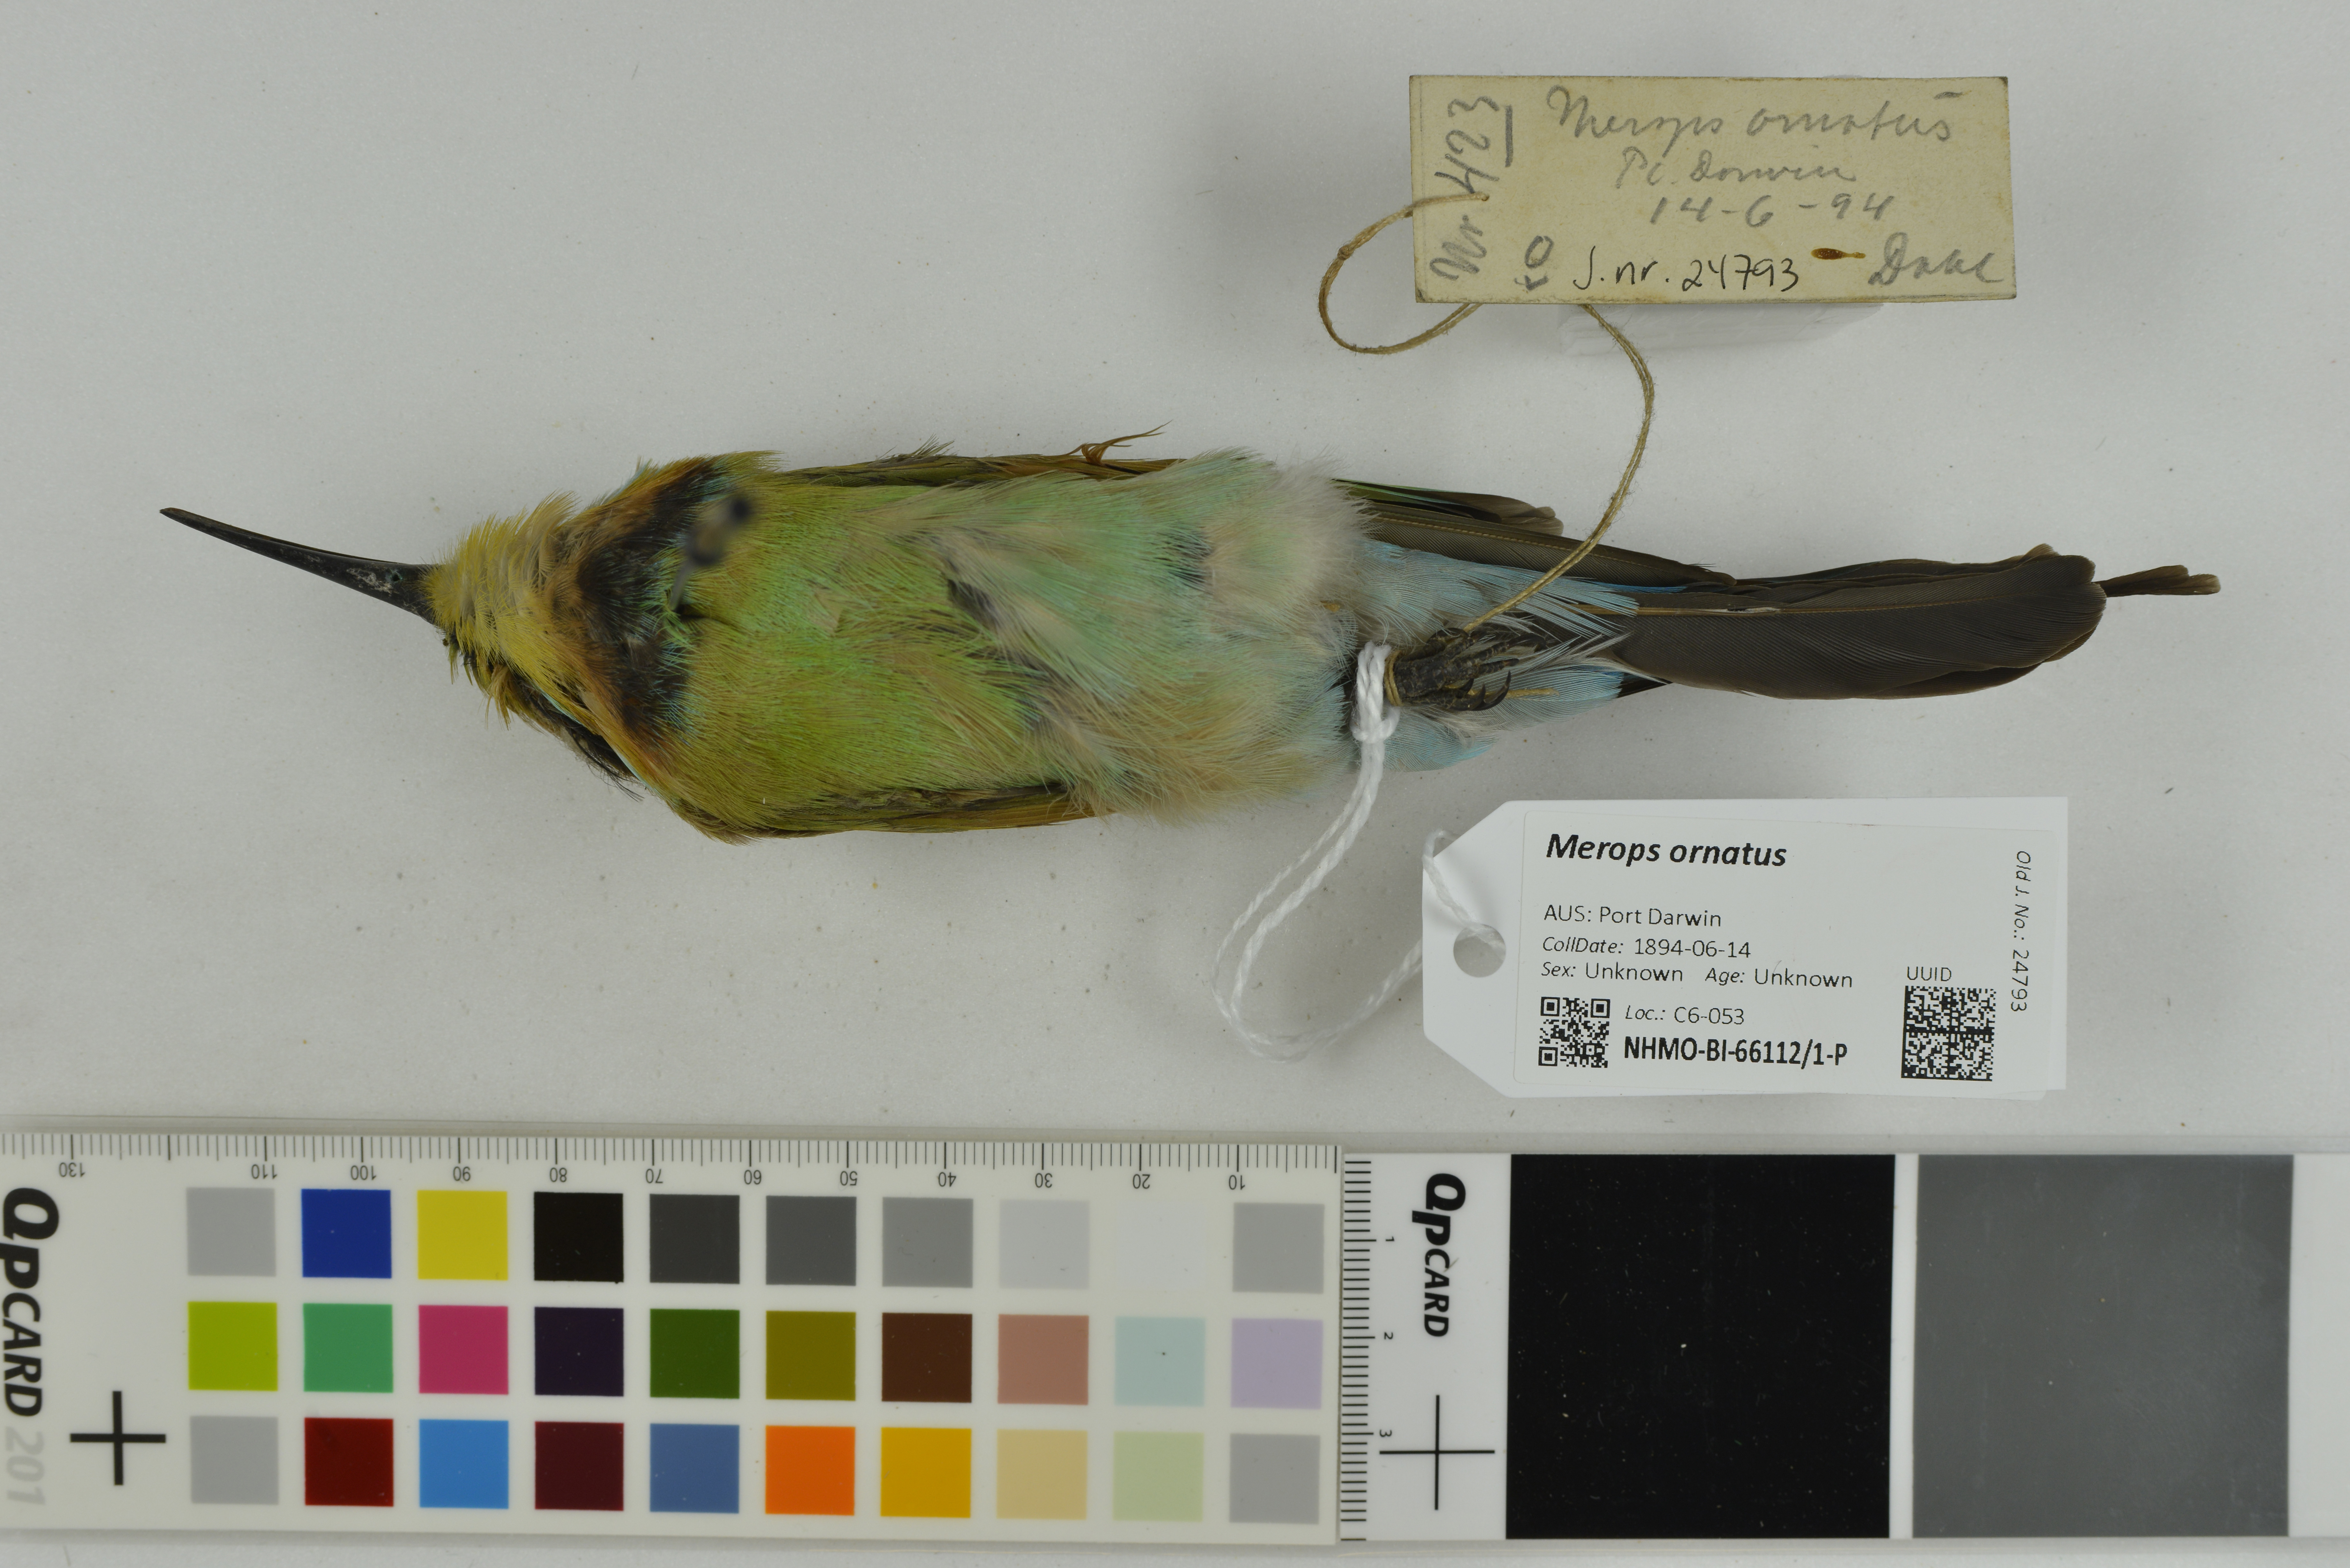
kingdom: Animalia
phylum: Chordata
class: Aves
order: Coraciiformes
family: Meropidae
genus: Merops
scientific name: Merops ornatus
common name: Rainbow bee-eater
